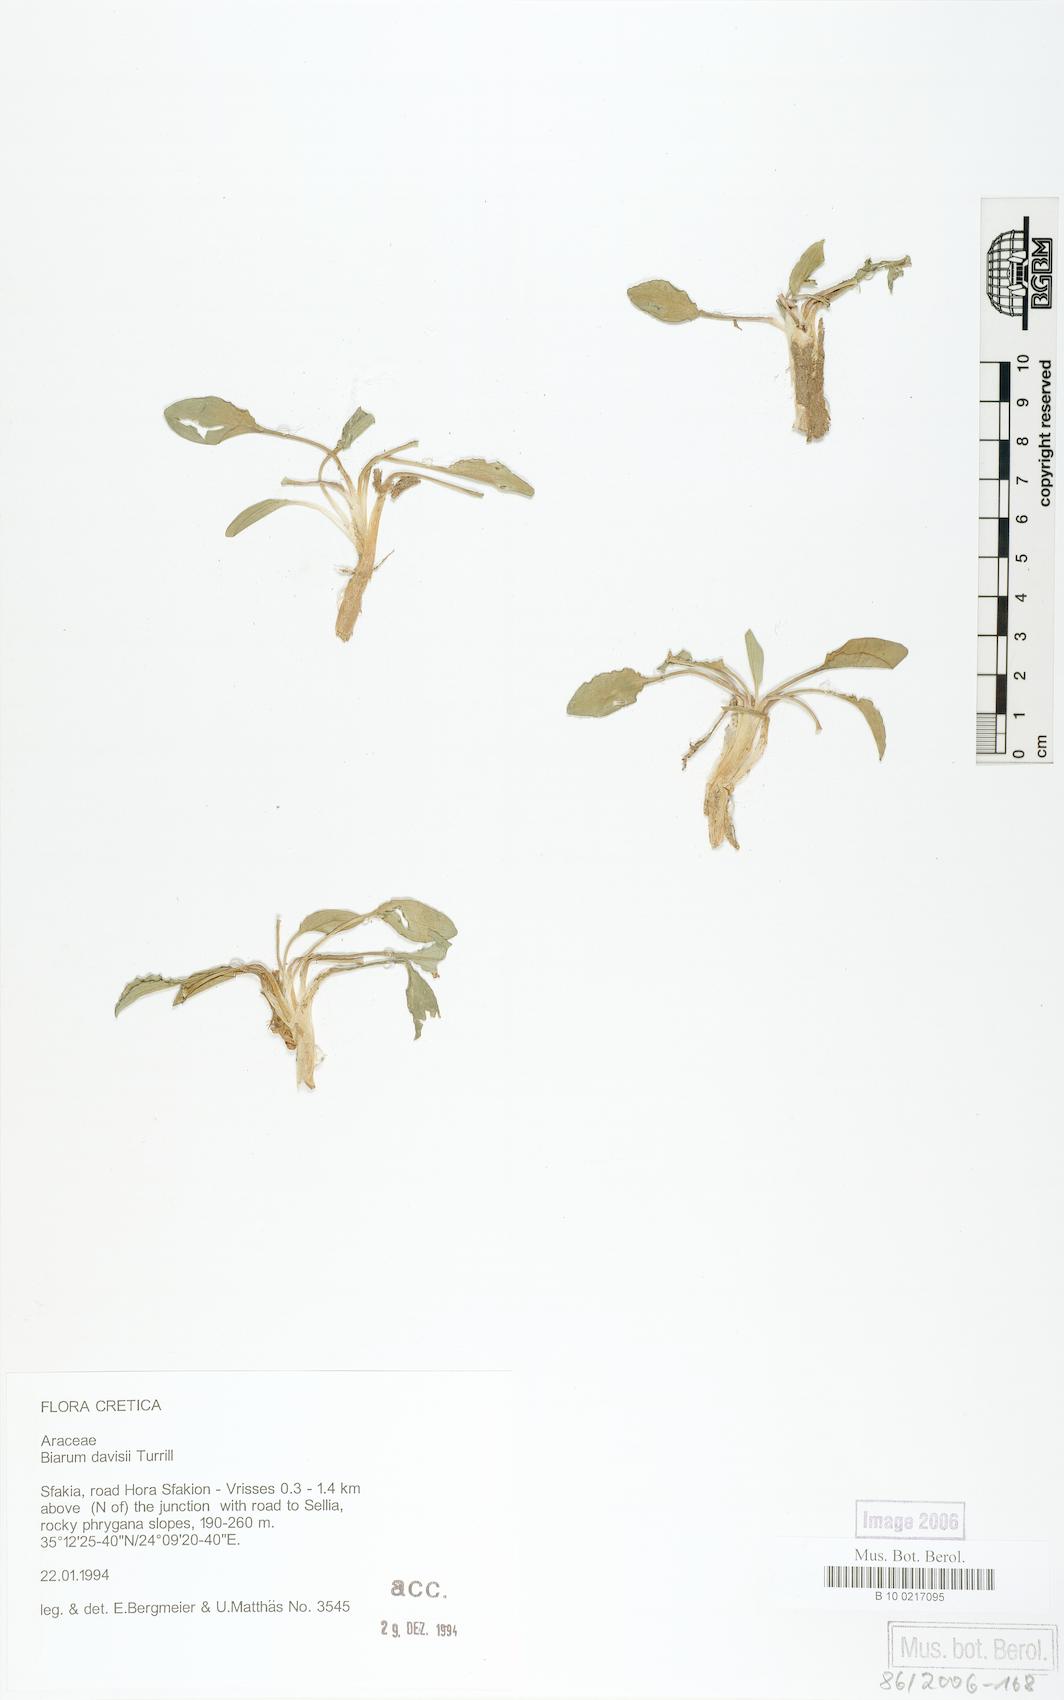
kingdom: Plantae
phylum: Tracheophyta
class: Liliopsida
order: Alismatales
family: Araceae
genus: Biarum
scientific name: Biarum davisii
